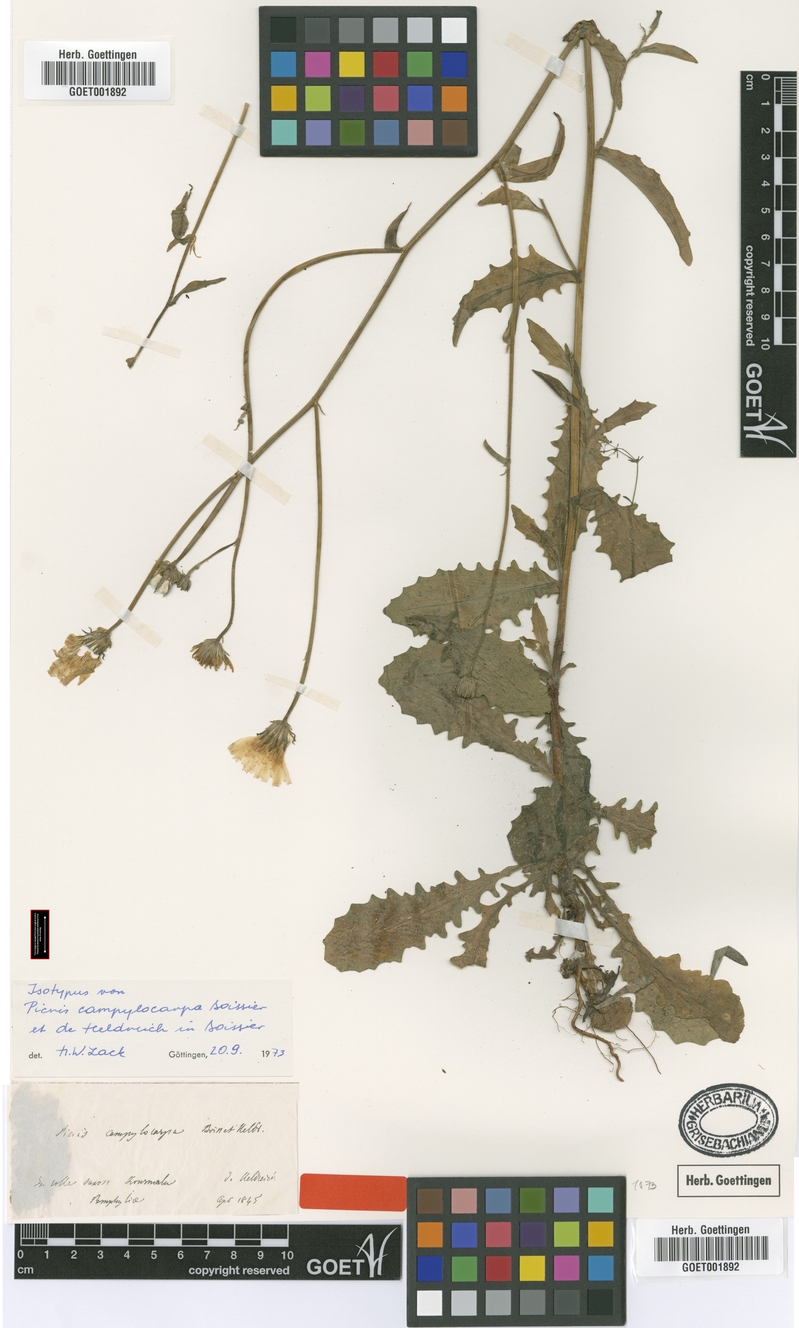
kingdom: Plantae
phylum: Tracheophyta
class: Magnoliopsida
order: Asterales
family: Asteraceae
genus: Picris
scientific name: Picris campylocarpa
